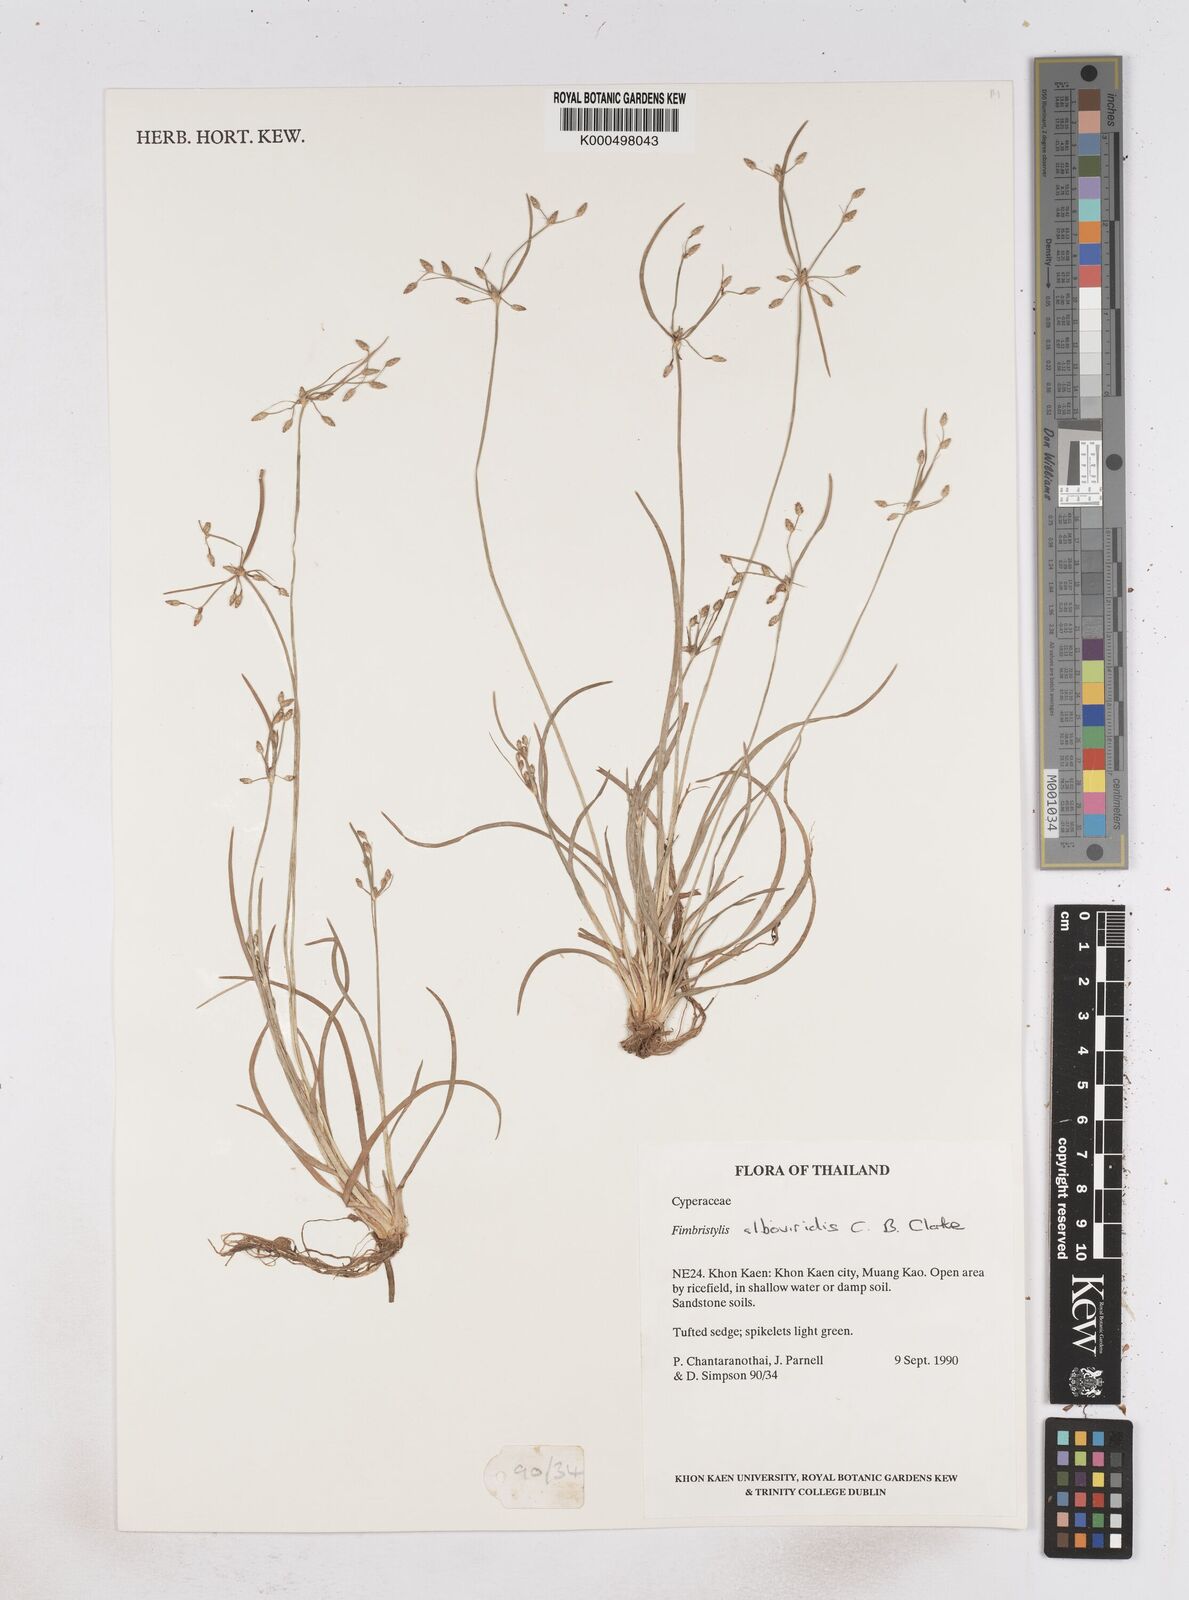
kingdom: Plantae
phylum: Tracheophyta
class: Liliopsida
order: Poales
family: Cyperaceae
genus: Fimbristylis
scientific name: Fimbristylis alboviridis
